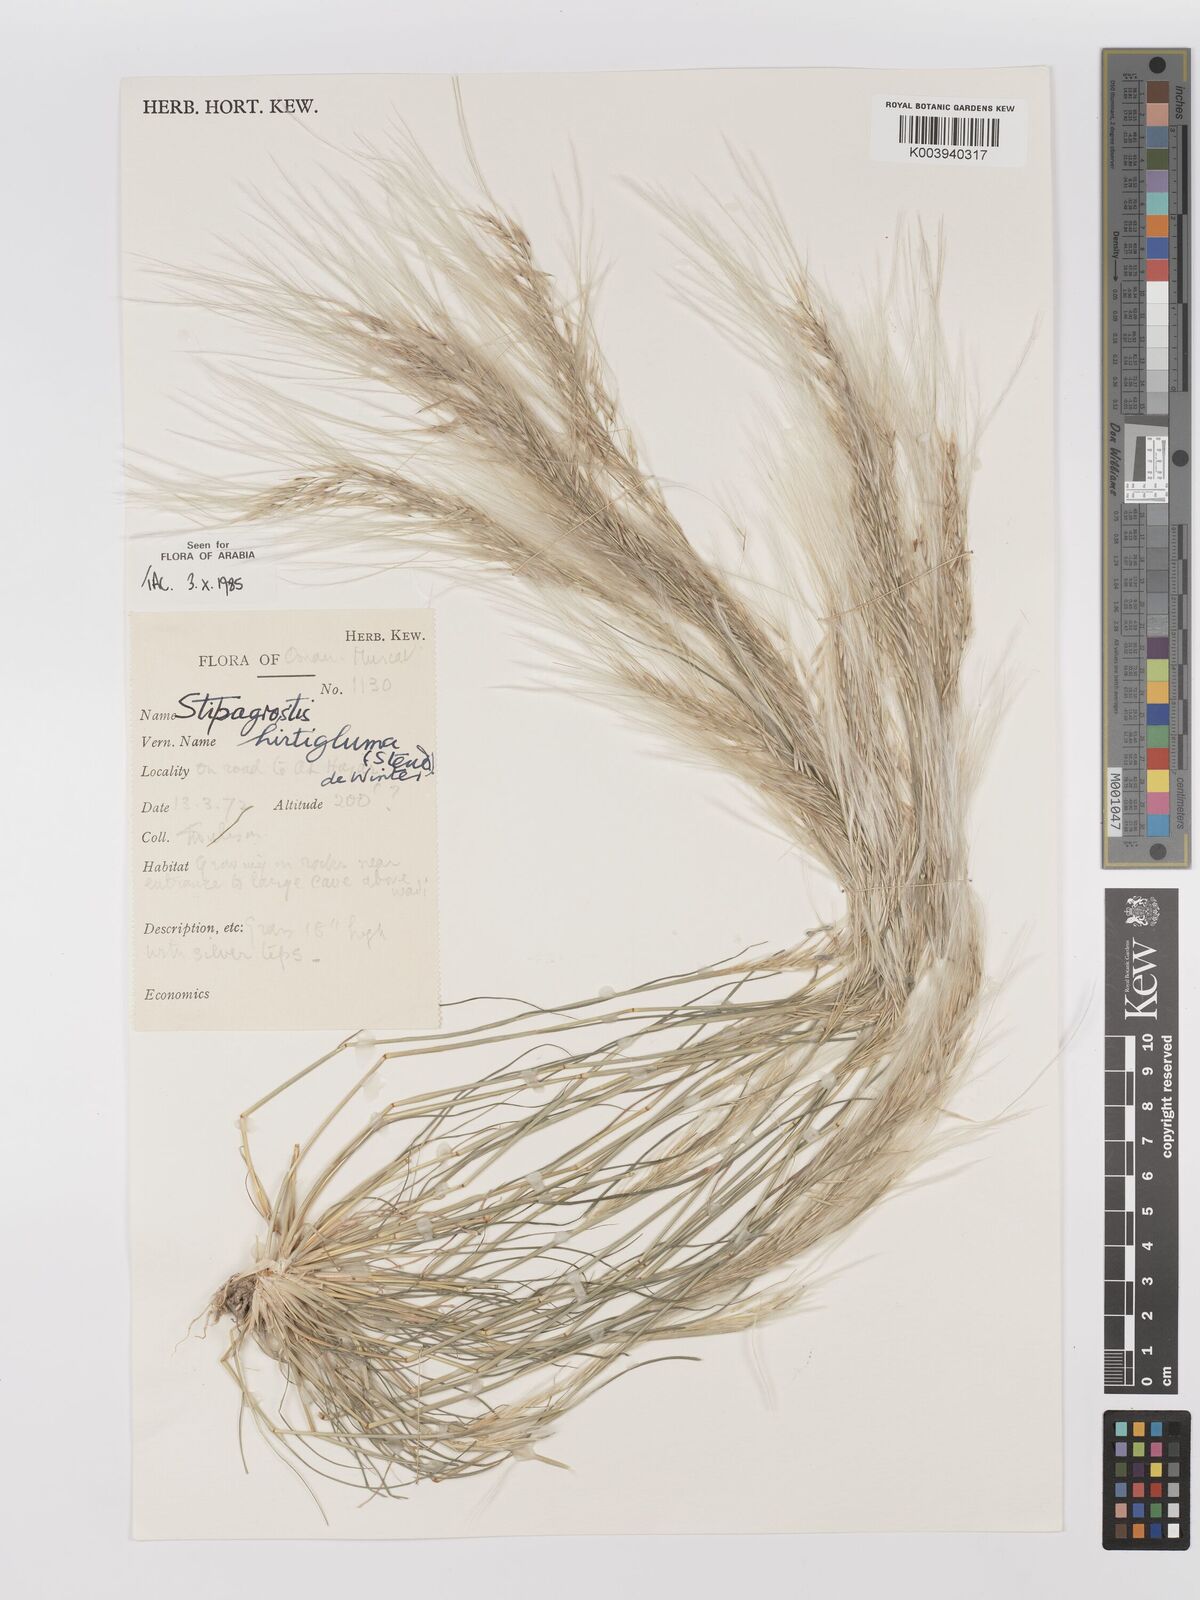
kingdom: Plantae
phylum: Tracheophyta
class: Liliopsida
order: Poales
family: Poaceae
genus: Stipagrostis
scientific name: Stipagrostis hirtigluma
